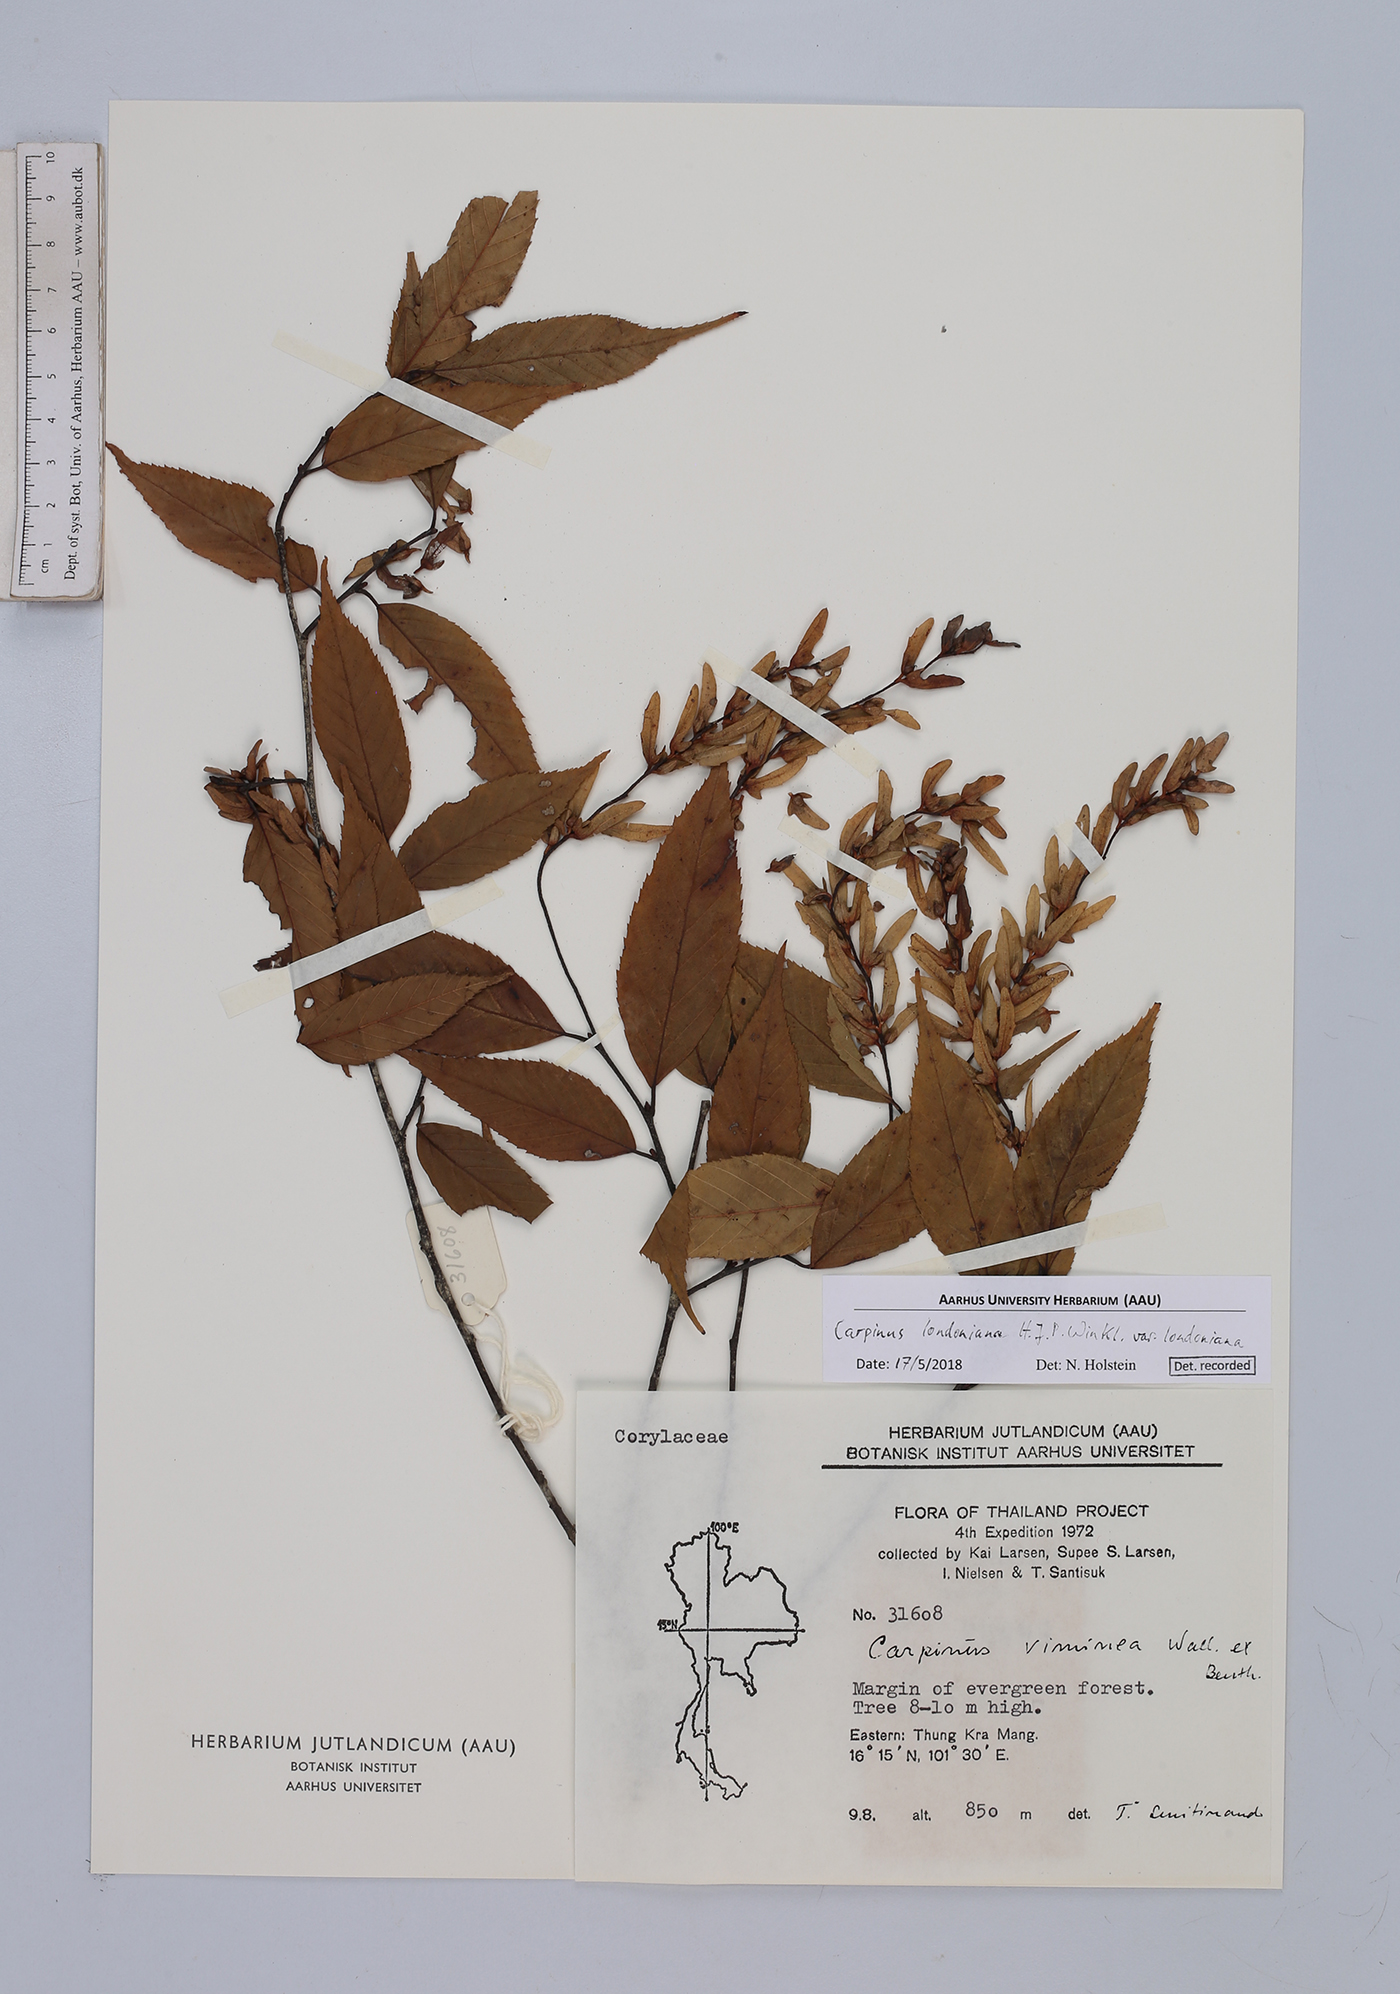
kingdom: Plantae
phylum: Tracheophyta
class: Magnoliopsida
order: Fagales
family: Betulaceae
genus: Carpinus
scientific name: Carpinus londoniana
